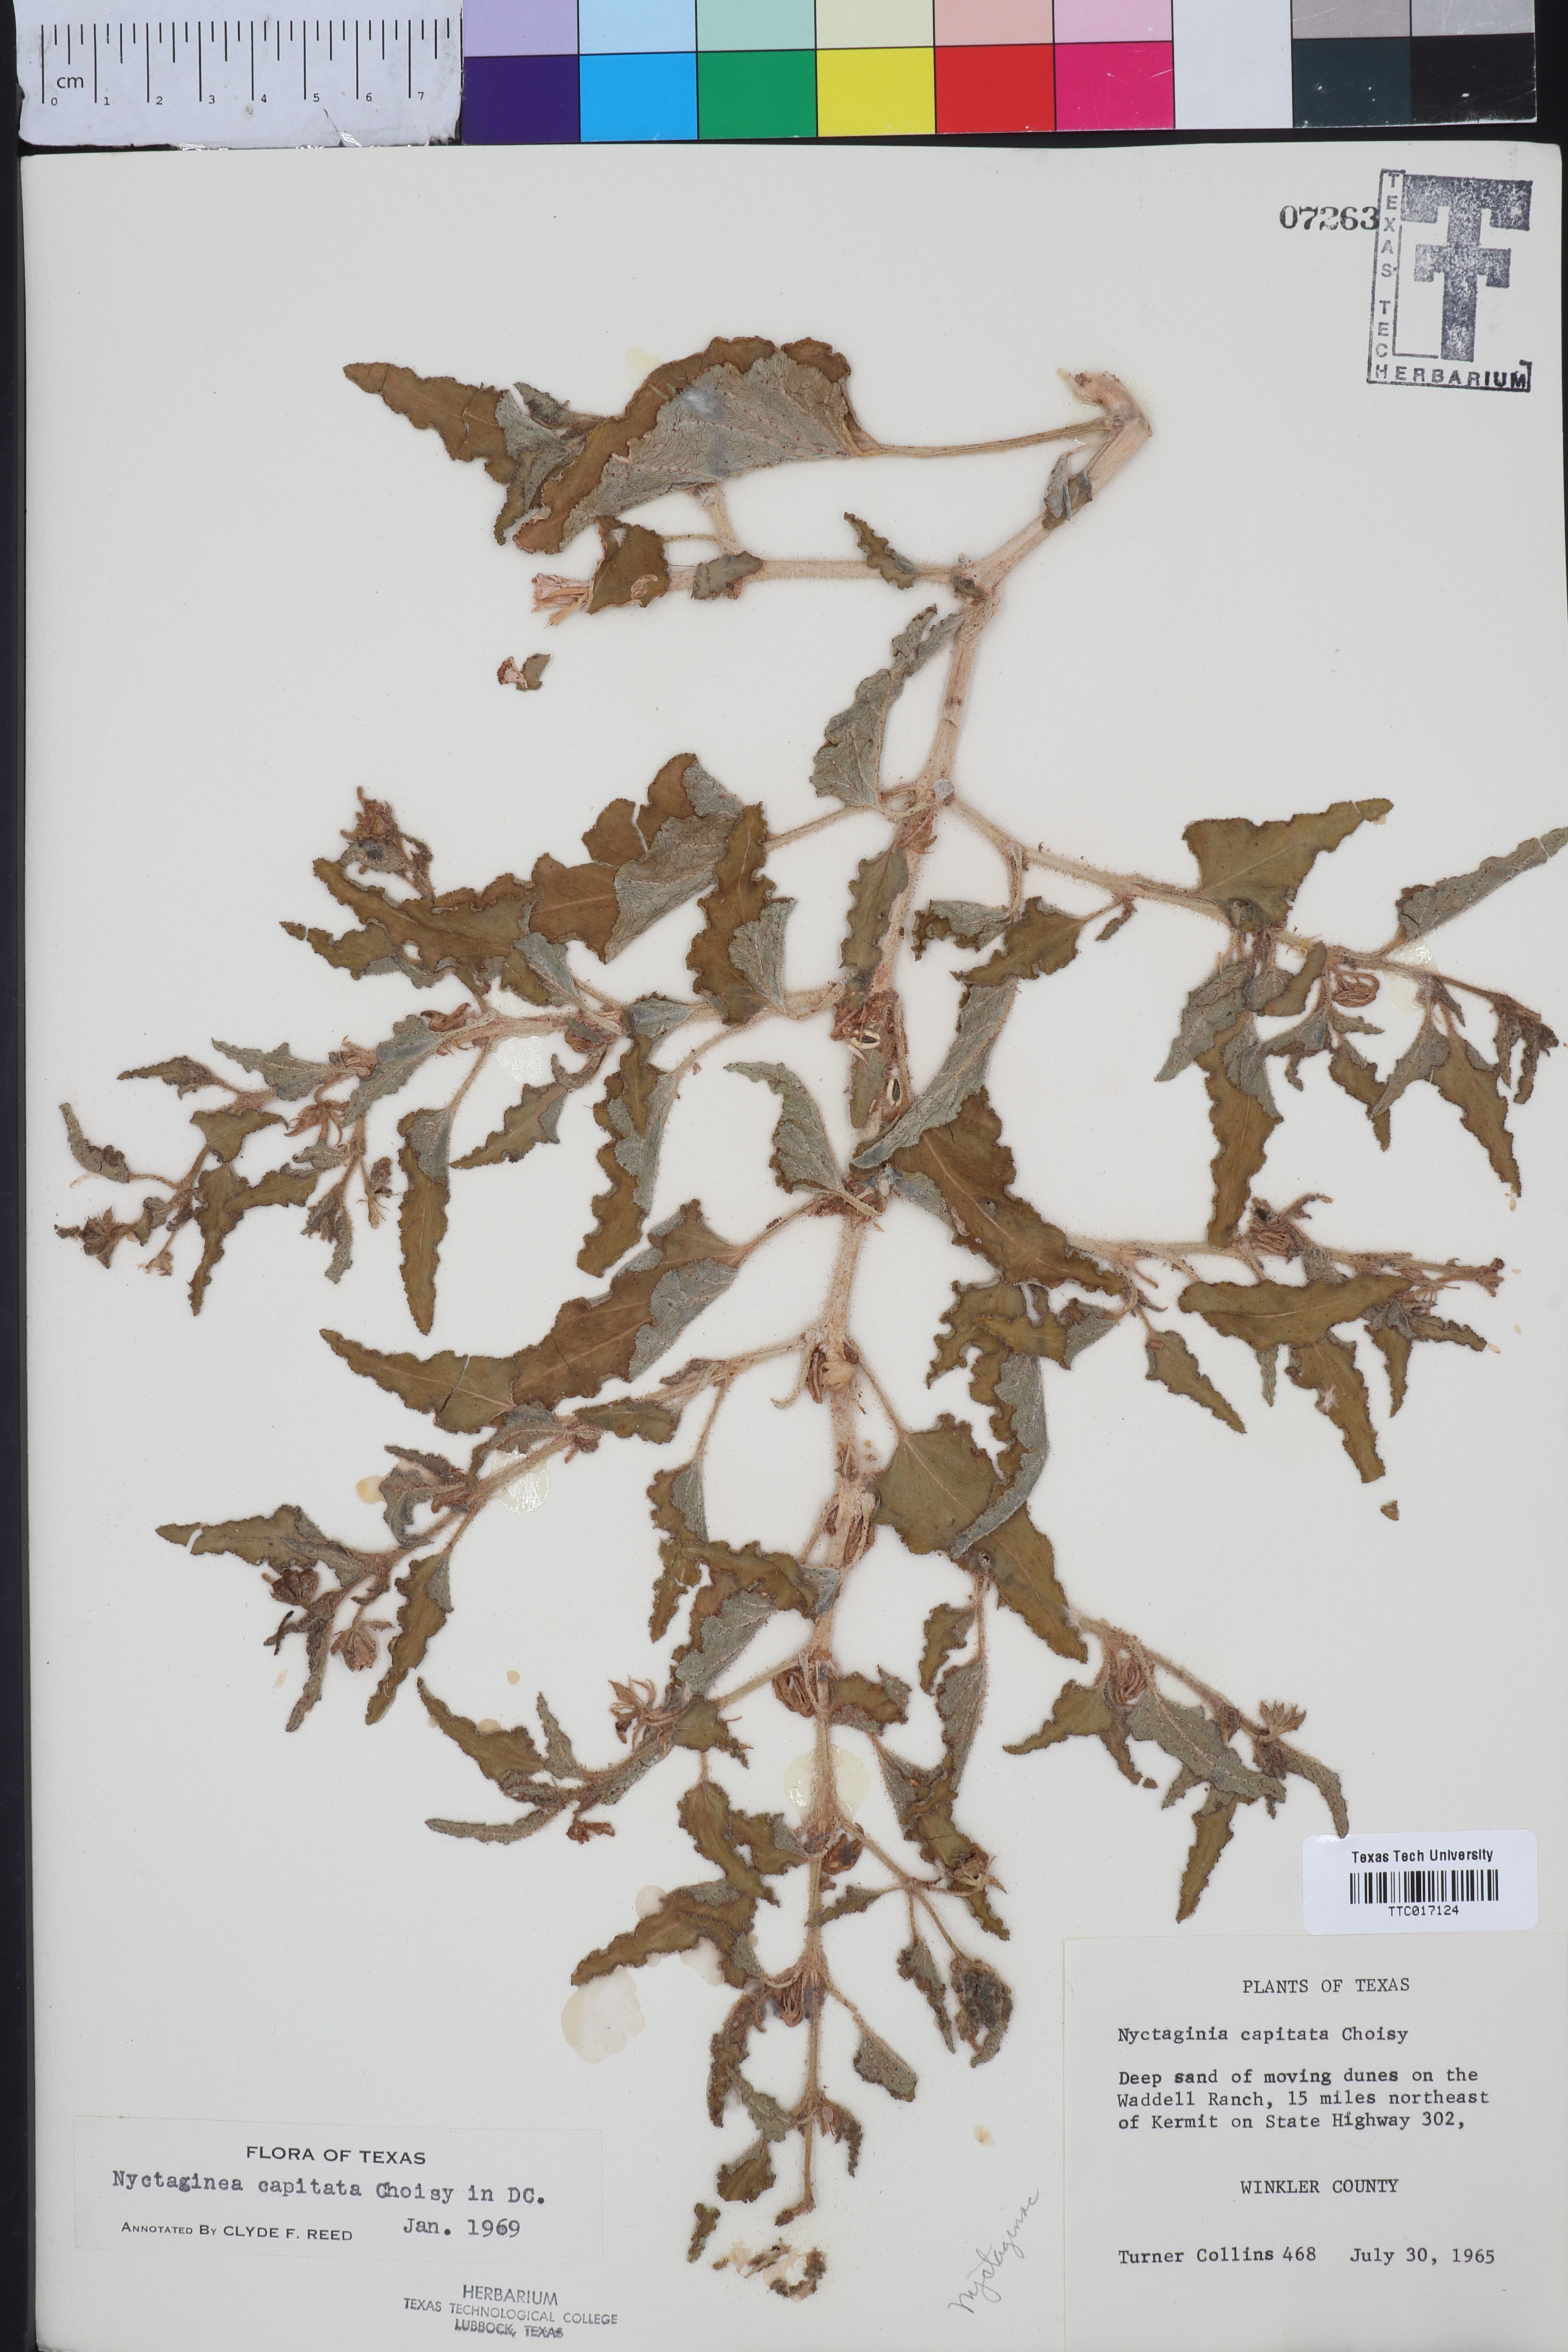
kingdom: Plantae
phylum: Tracheophyta
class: Magnoliopsida
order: Caryophyllales
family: Nyctaginaceae
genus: Nyctaginia
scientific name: Nyctaginia capitata
